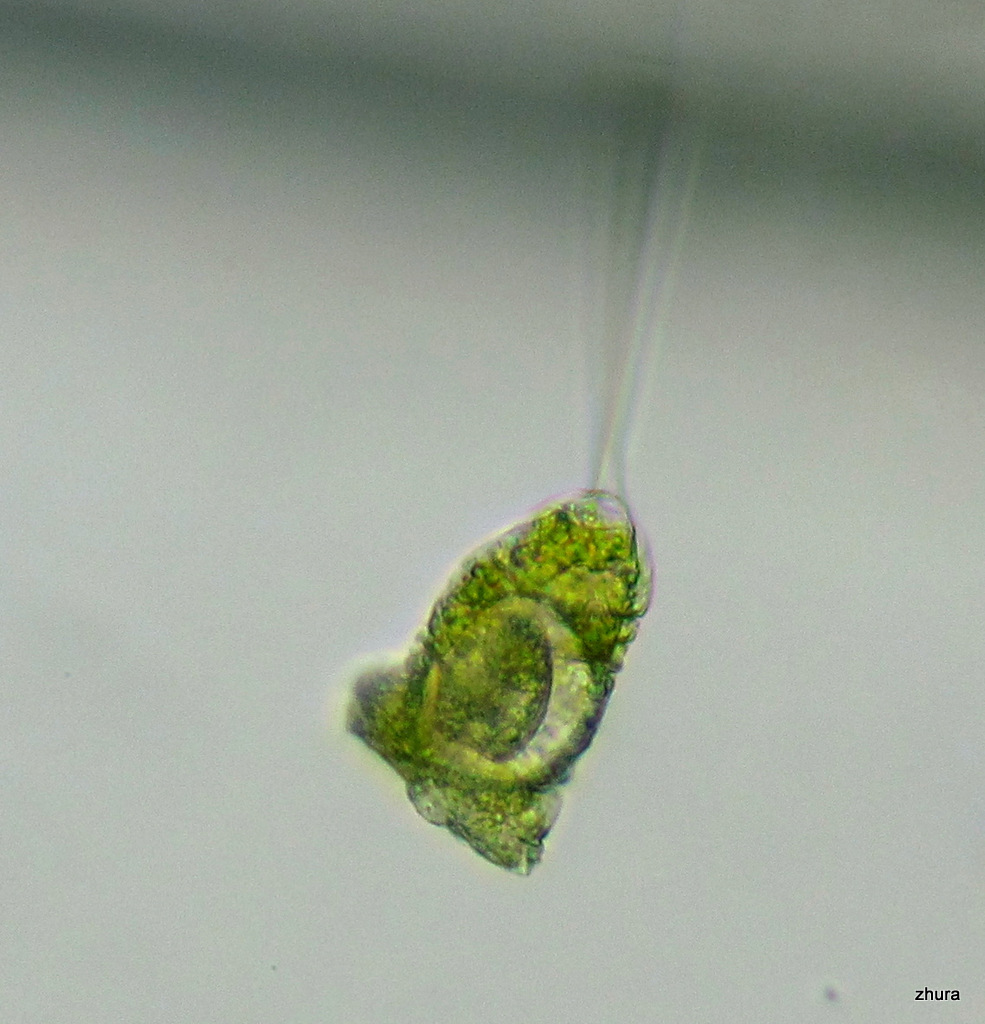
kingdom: Chromista
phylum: Ciliophora
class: Kinetofragminophora
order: Suctorida
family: Acinetidae
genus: Acineta
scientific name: Acineta tuberosa
